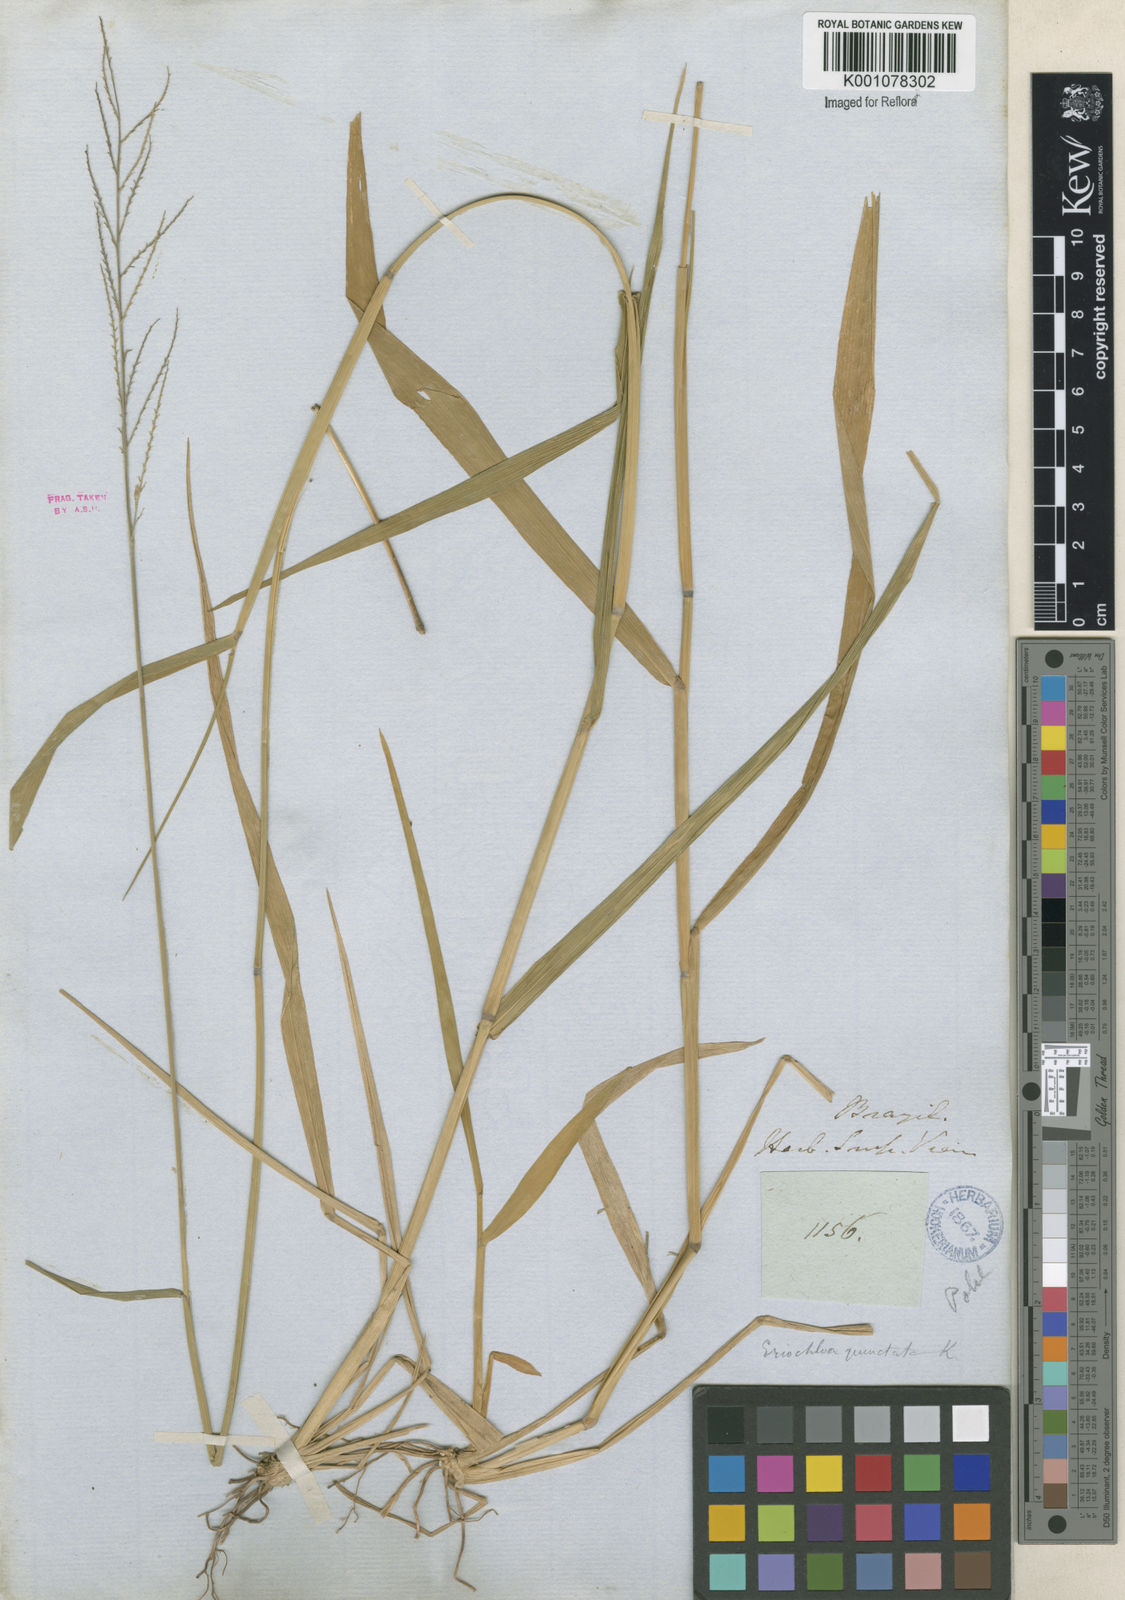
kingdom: Plantae
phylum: Tracheophyta
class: Liliopsida
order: Poales
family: Poaceae
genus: Eriochloa
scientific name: Eriochloa punctata
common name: Louisiana cupgrass
